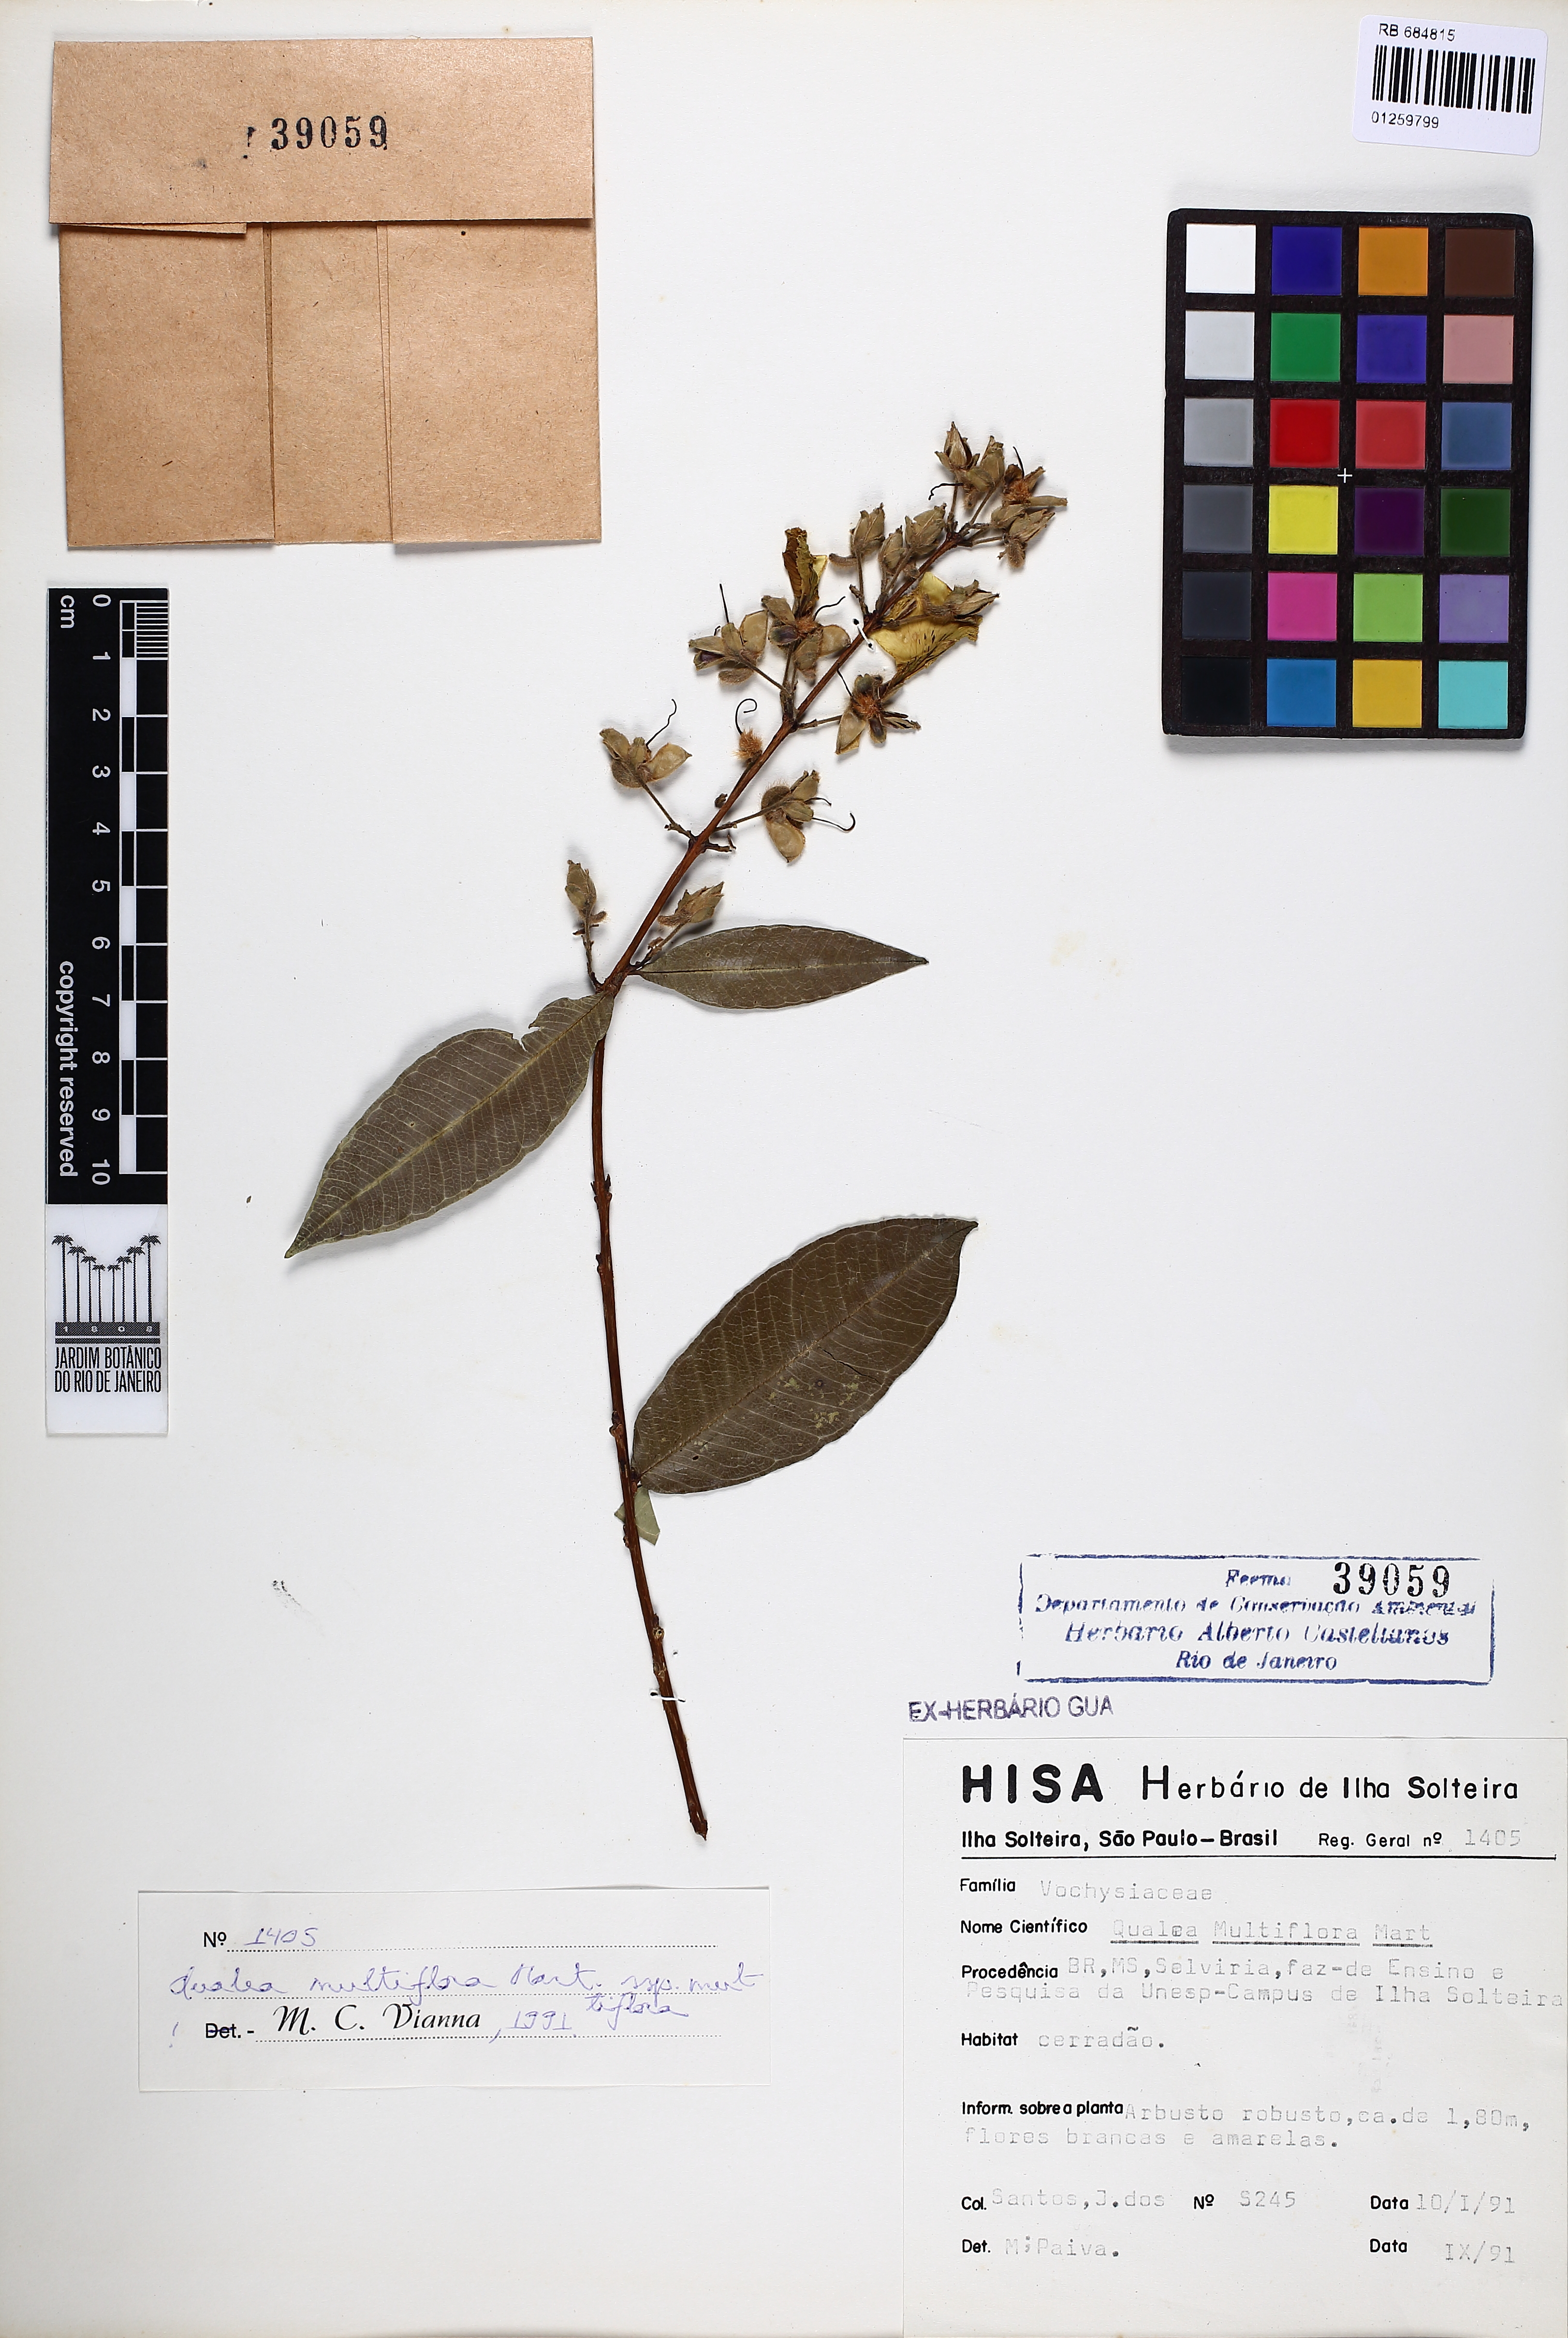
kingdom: Plantae
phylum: Tracheophyta
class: Magnoliopsida
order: Myrtales
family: Vochysiaceae
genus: Qualea
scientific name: Qualea multiflora
